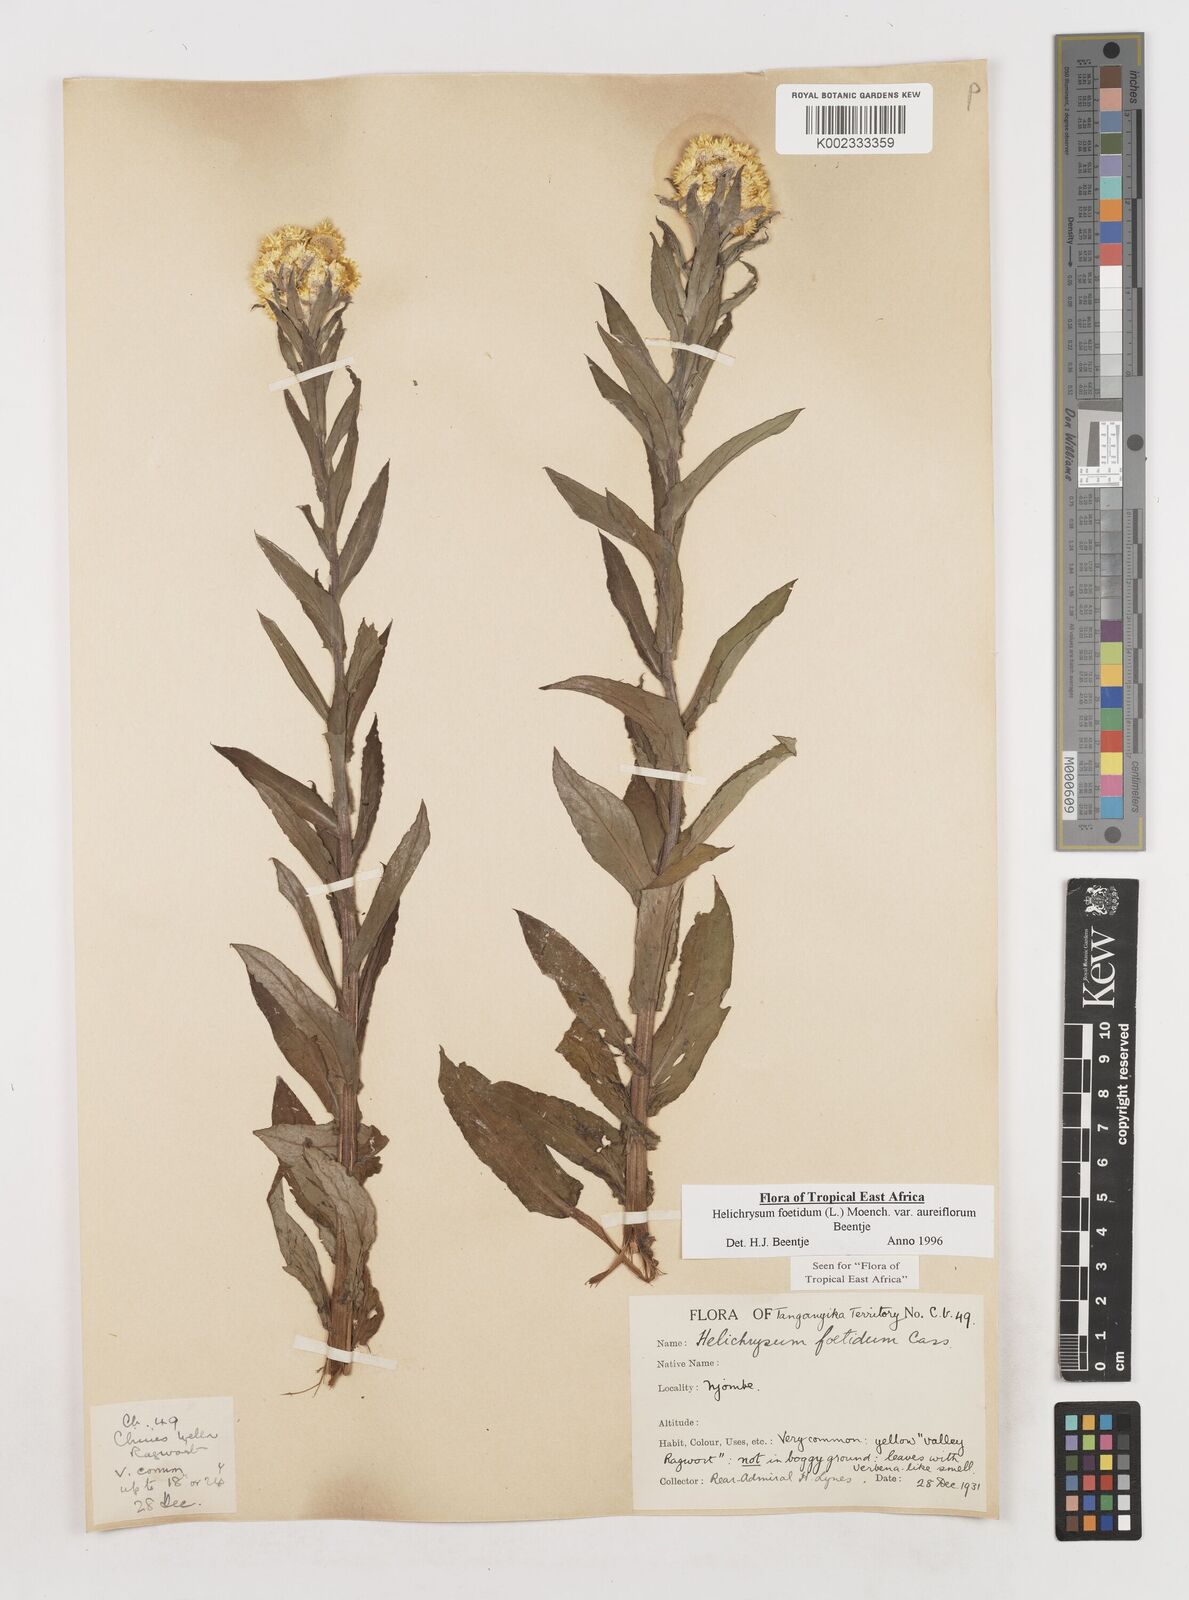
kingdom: Plantae
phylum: Tracheophyta
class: Magnoliopsida
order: Asterales
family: Asteraceae
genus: Helichrysum
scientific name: Helichrysum foetidum
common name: Stinking everlasting
